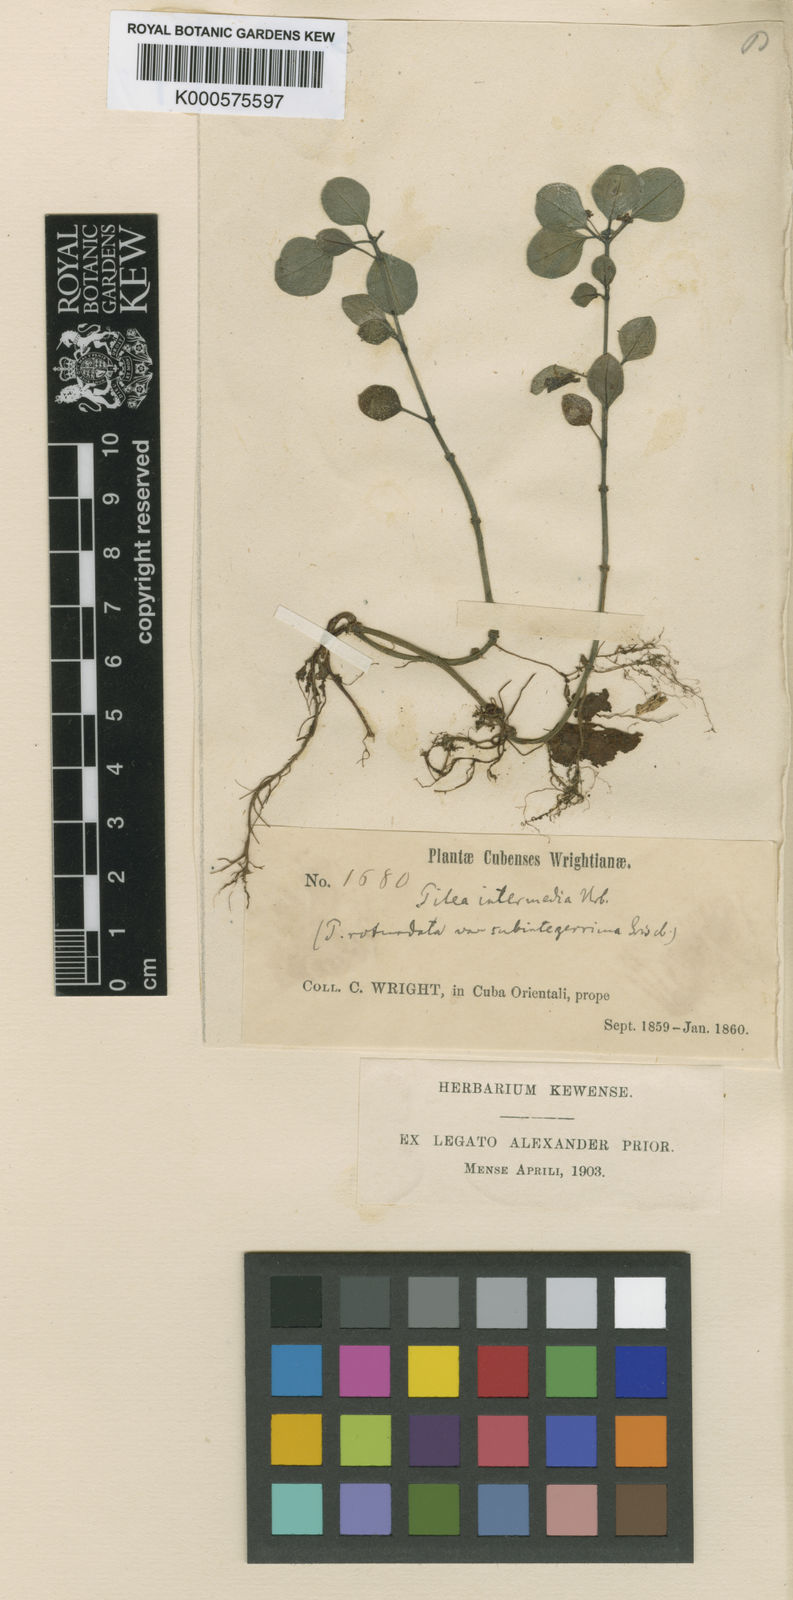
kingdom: Plantae
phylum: Tracheophyta
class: Magnoliopsida
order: Rosales
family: Urticaceae
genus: Pilea
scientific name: Pilea intermedia
